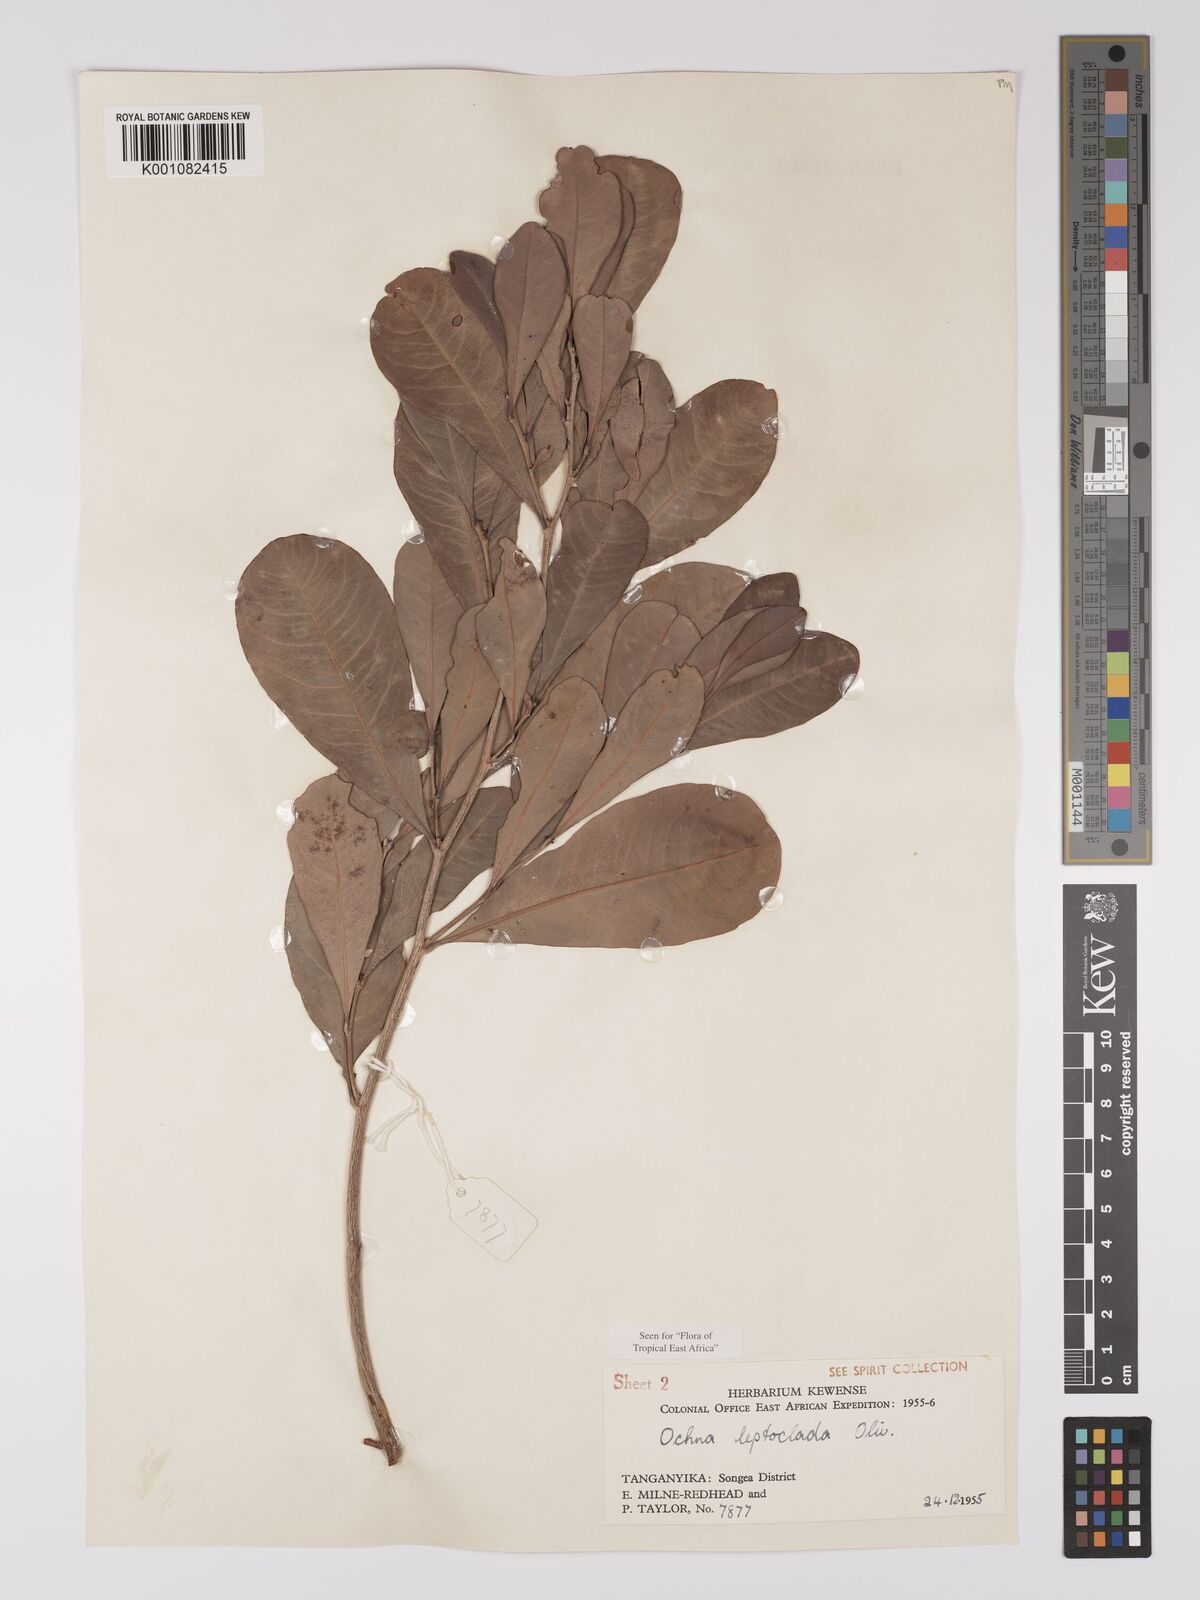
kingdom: Plantae
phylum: Tracheophyta
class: Magnoliopsida
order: Malpighiales
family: Ochnaceae
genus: Ochna
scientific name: Ochna leptoclada
